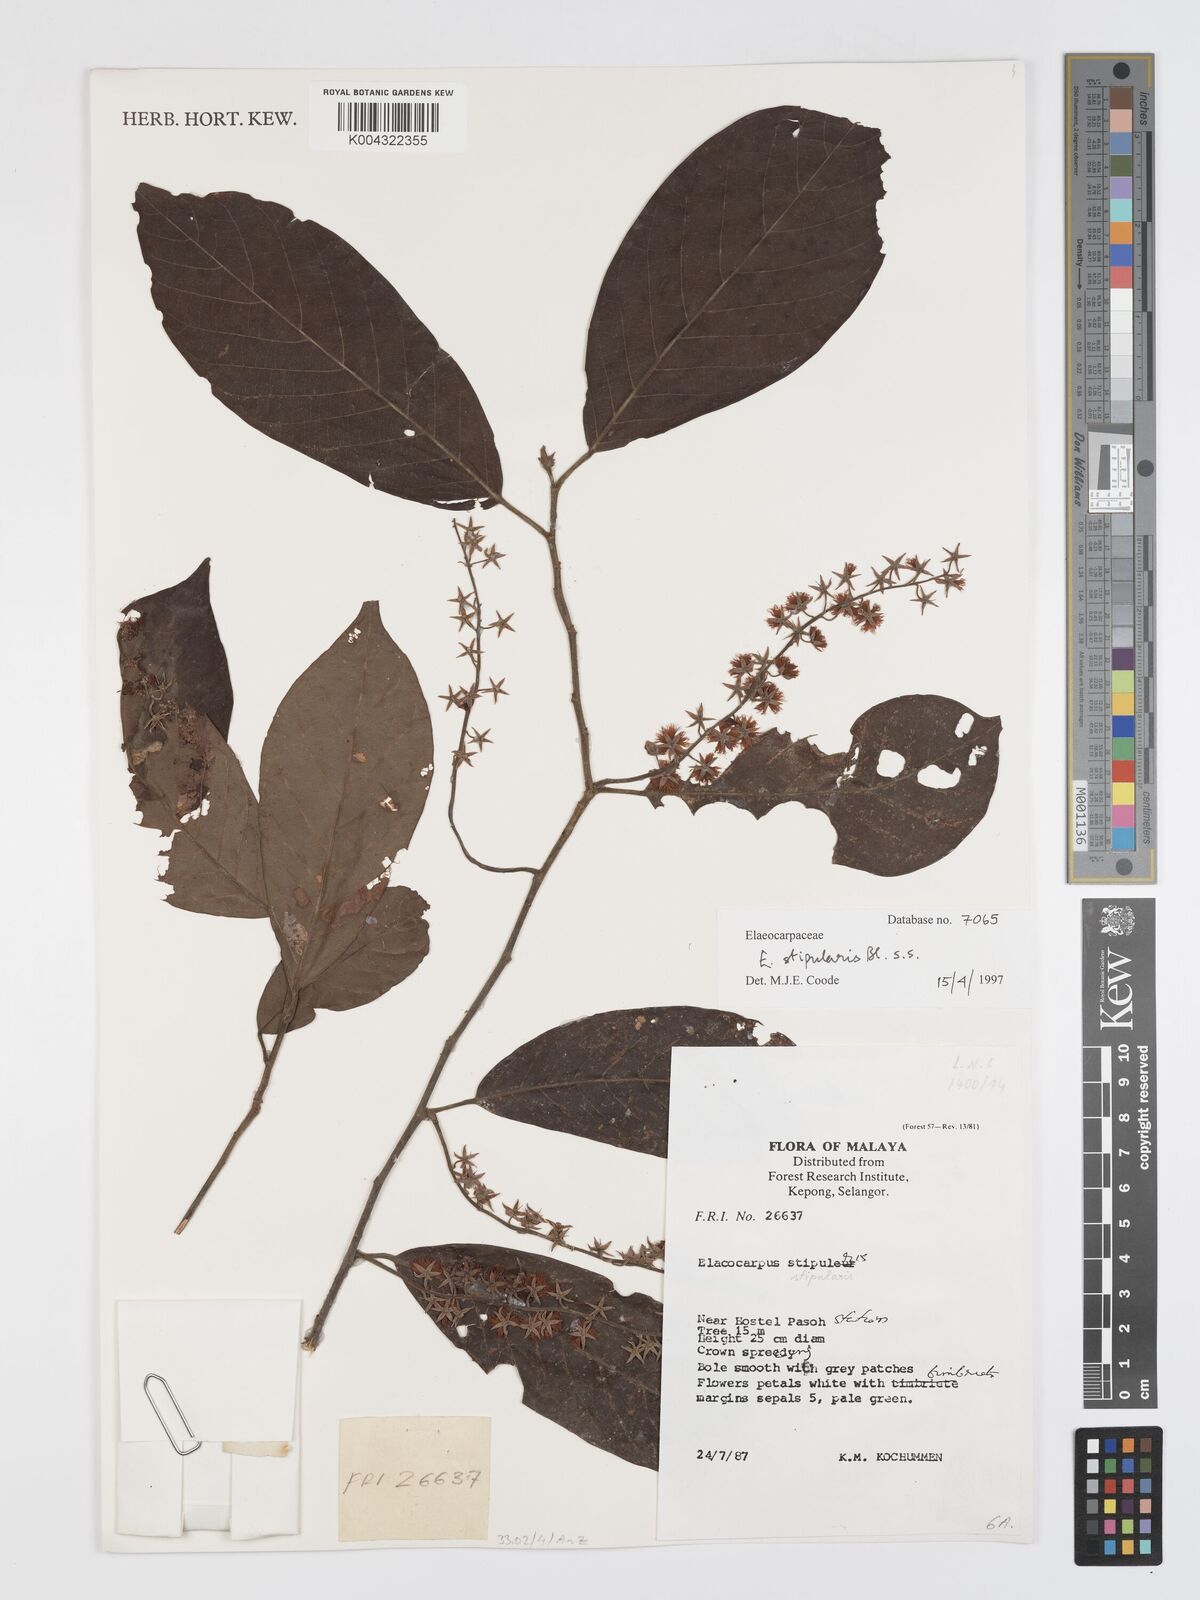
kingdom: Plantae
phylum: Tracheophyta
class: Magnoliopsida
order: Oxalidales
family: Elaeocarpaceae
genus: Elaeocarpus
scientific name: Elaeocarpus stipularis
